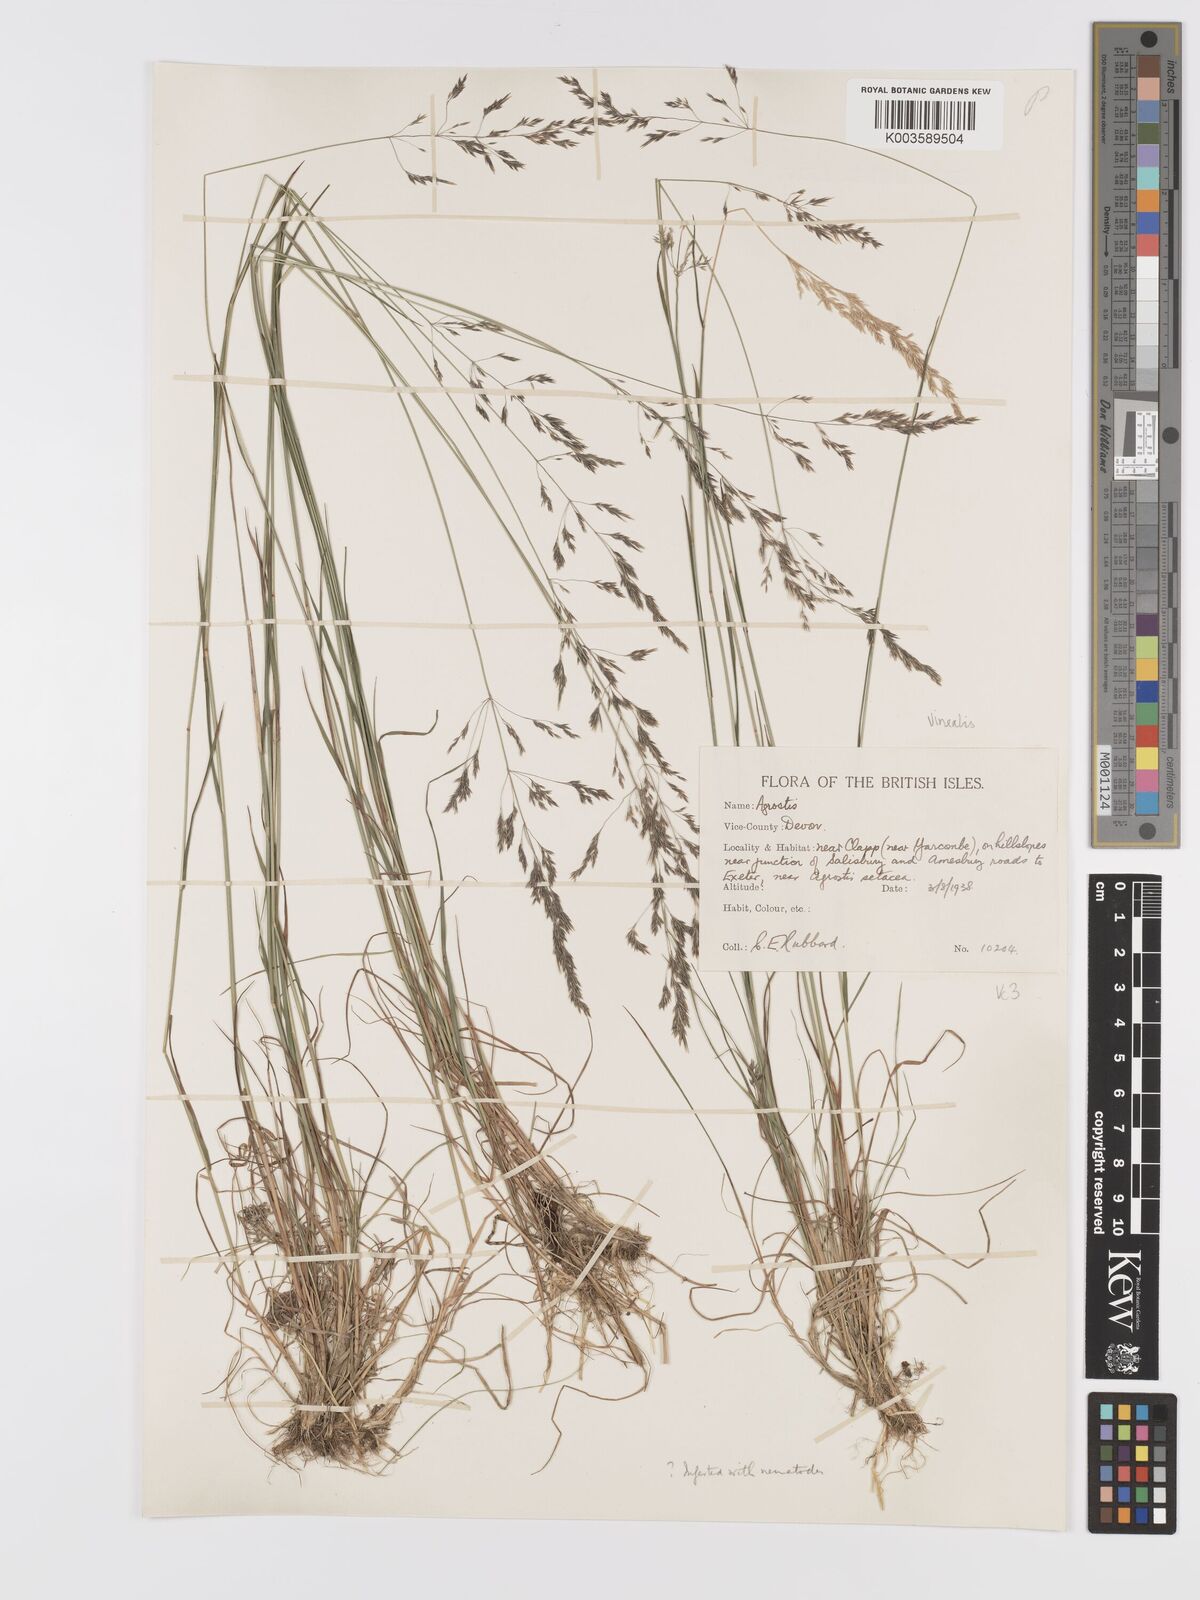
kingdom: Plantae
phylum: Tracheophyta
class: Liliopsida
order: Poales
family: Poaceae
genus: Agrostis
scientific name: Agrostis
